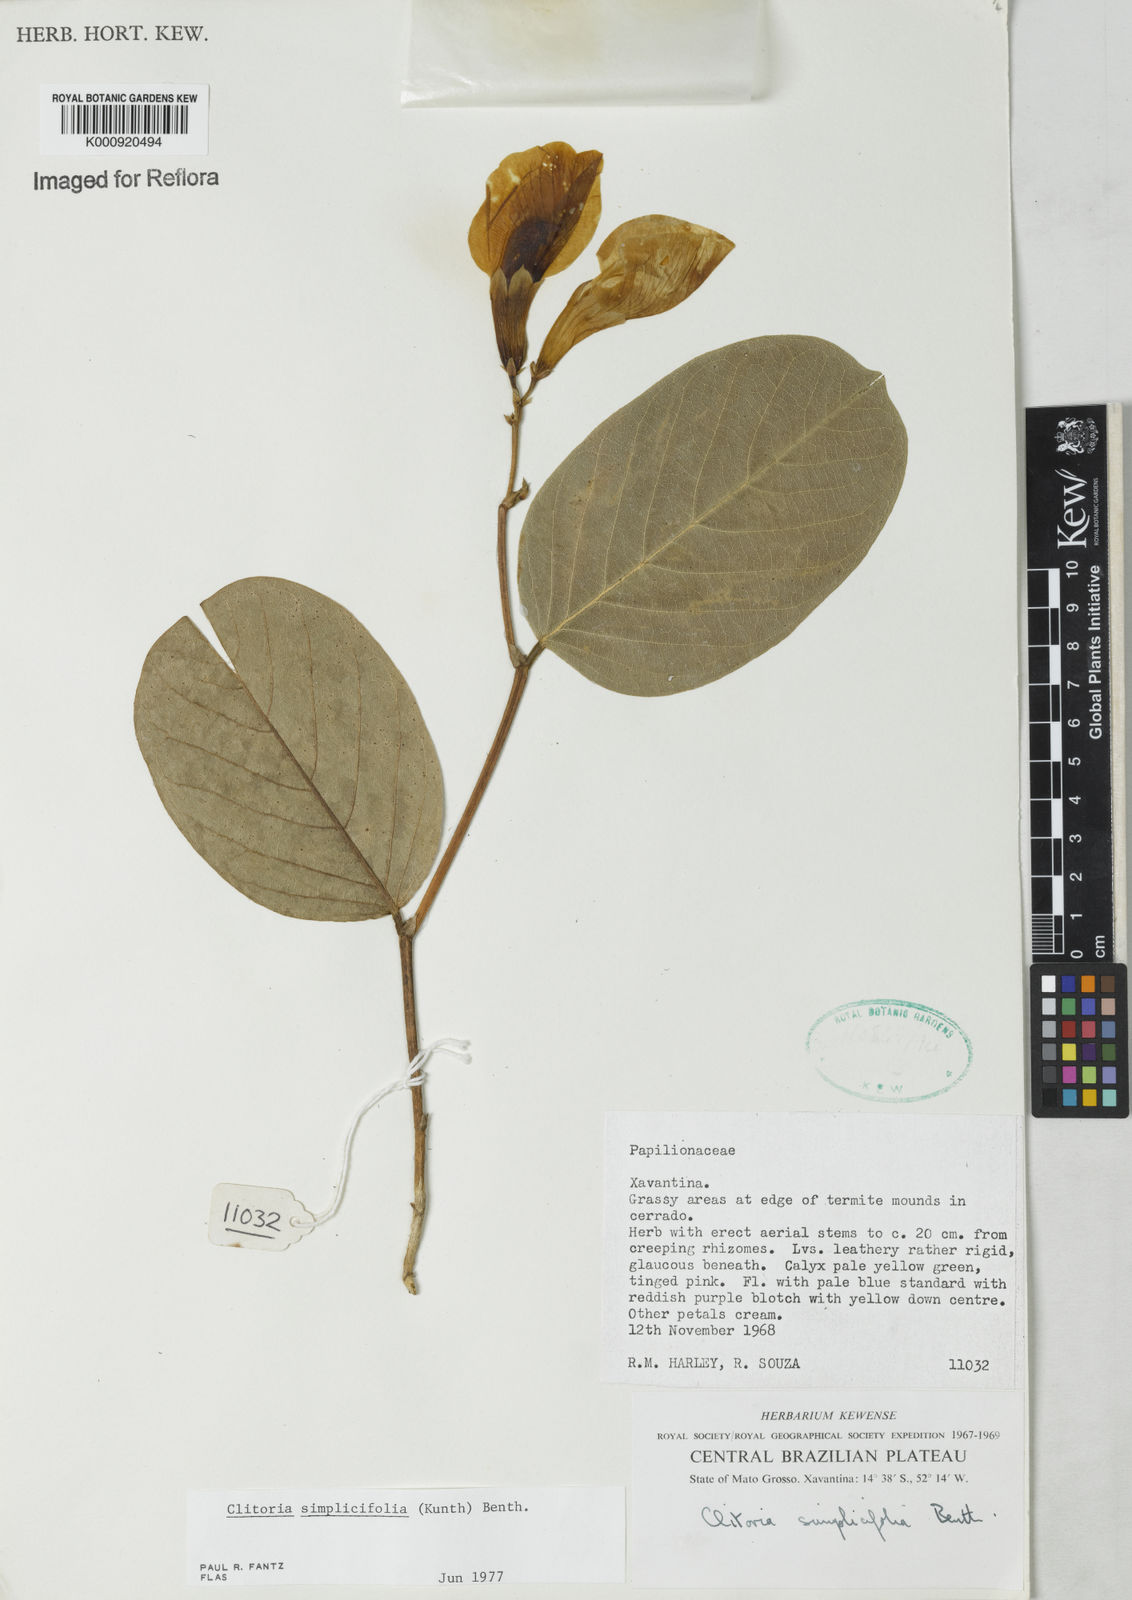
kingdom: Plantae
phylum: Tracheophyta
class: Magnoliopsida
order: Fabales
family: Fabaceae
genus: Clitoria
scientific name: Clitoria simplicifolia
